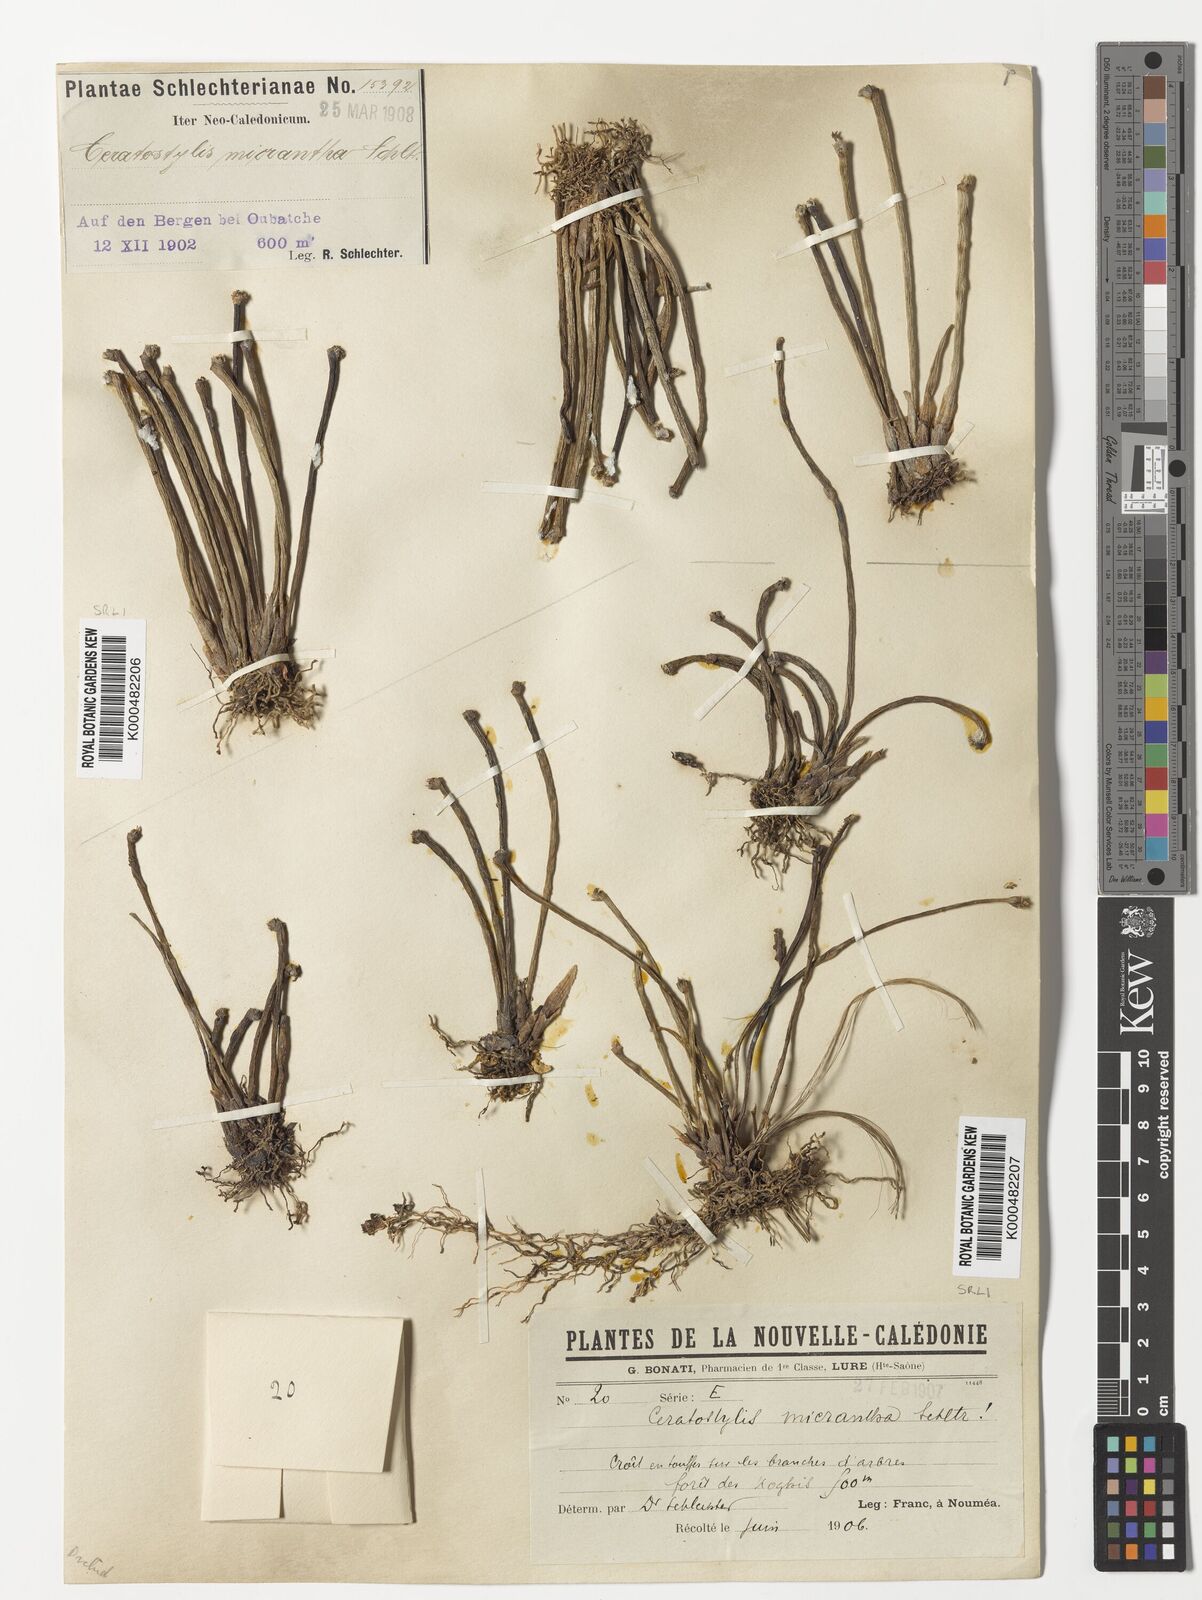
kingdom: Plantae
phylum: Tracheophyta
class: Liliopsida
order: Asparagales
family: Orchidaceae
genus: Ceratostylis
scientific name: Ceratostylis
